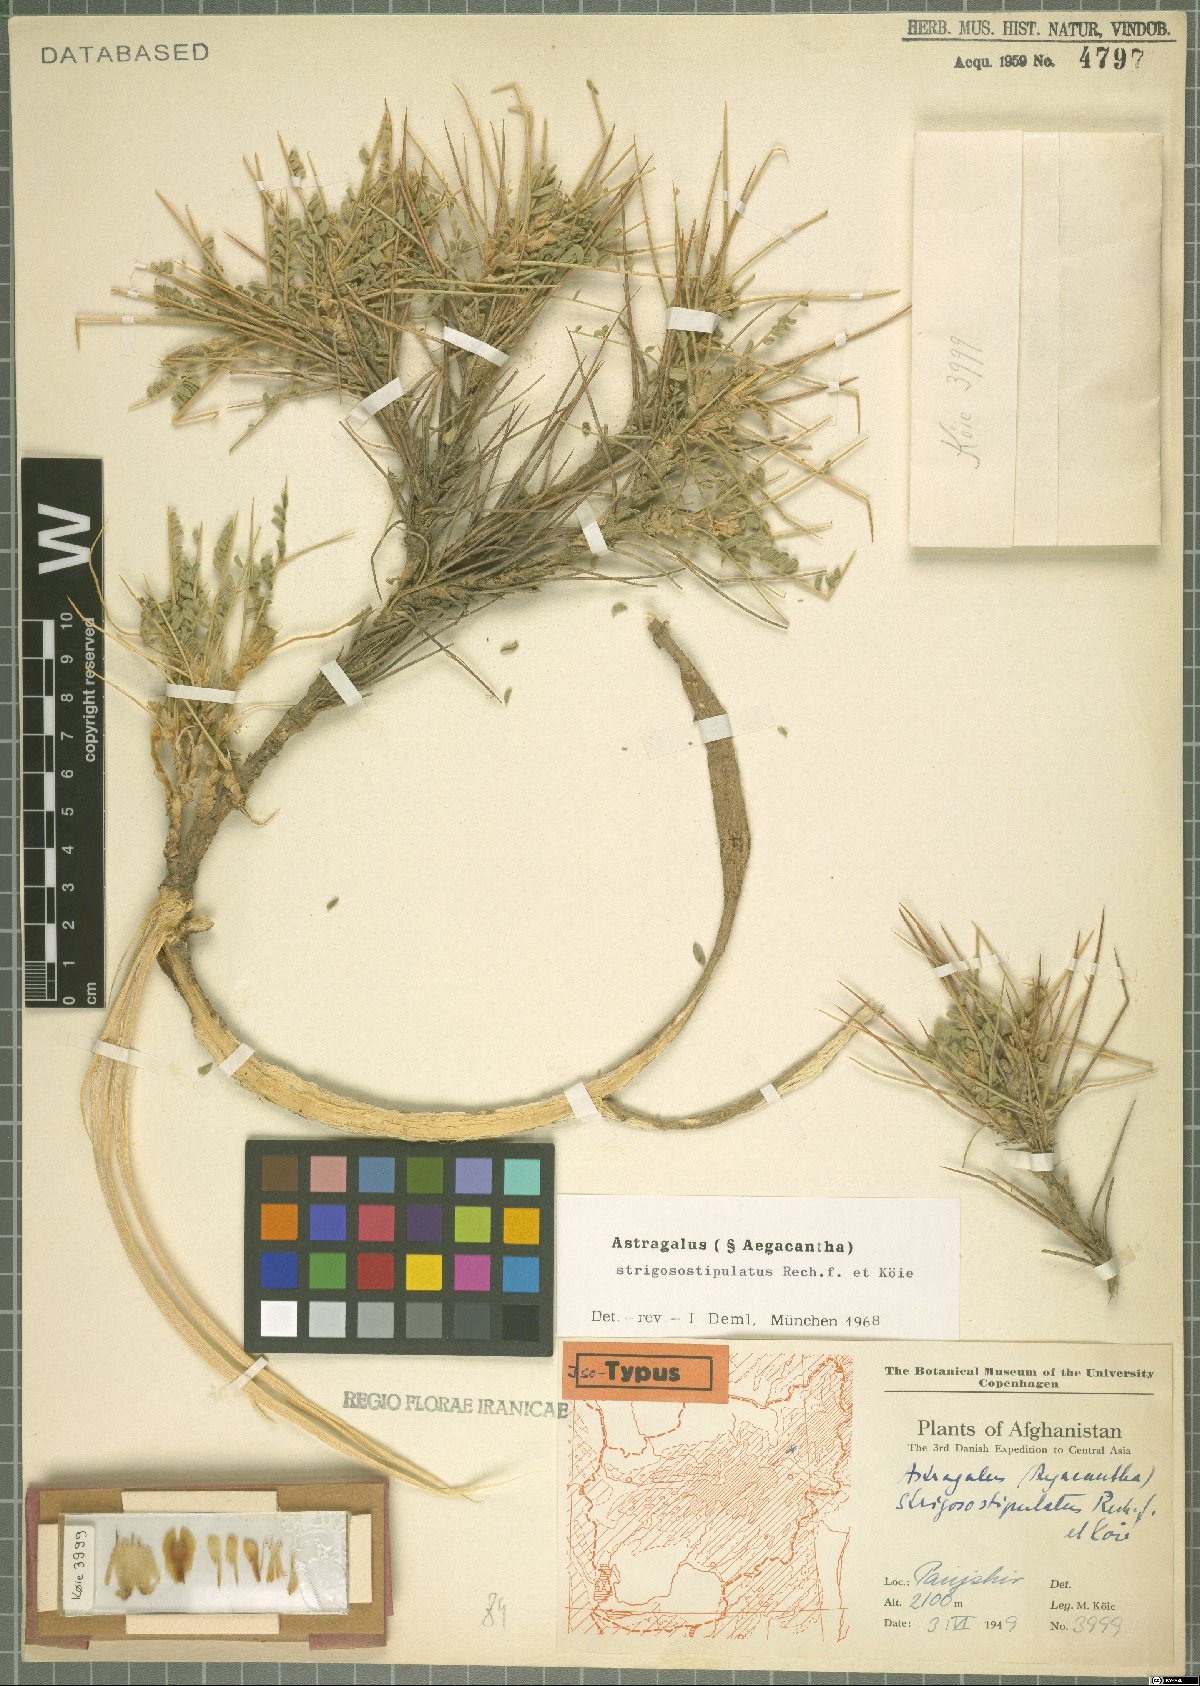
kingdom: Plantae
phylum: Tracheophyta
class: Magnoliopsida
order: Fabales
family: Fabaceae
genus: Astragalus
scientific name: Astragalus strigosostipulatus
